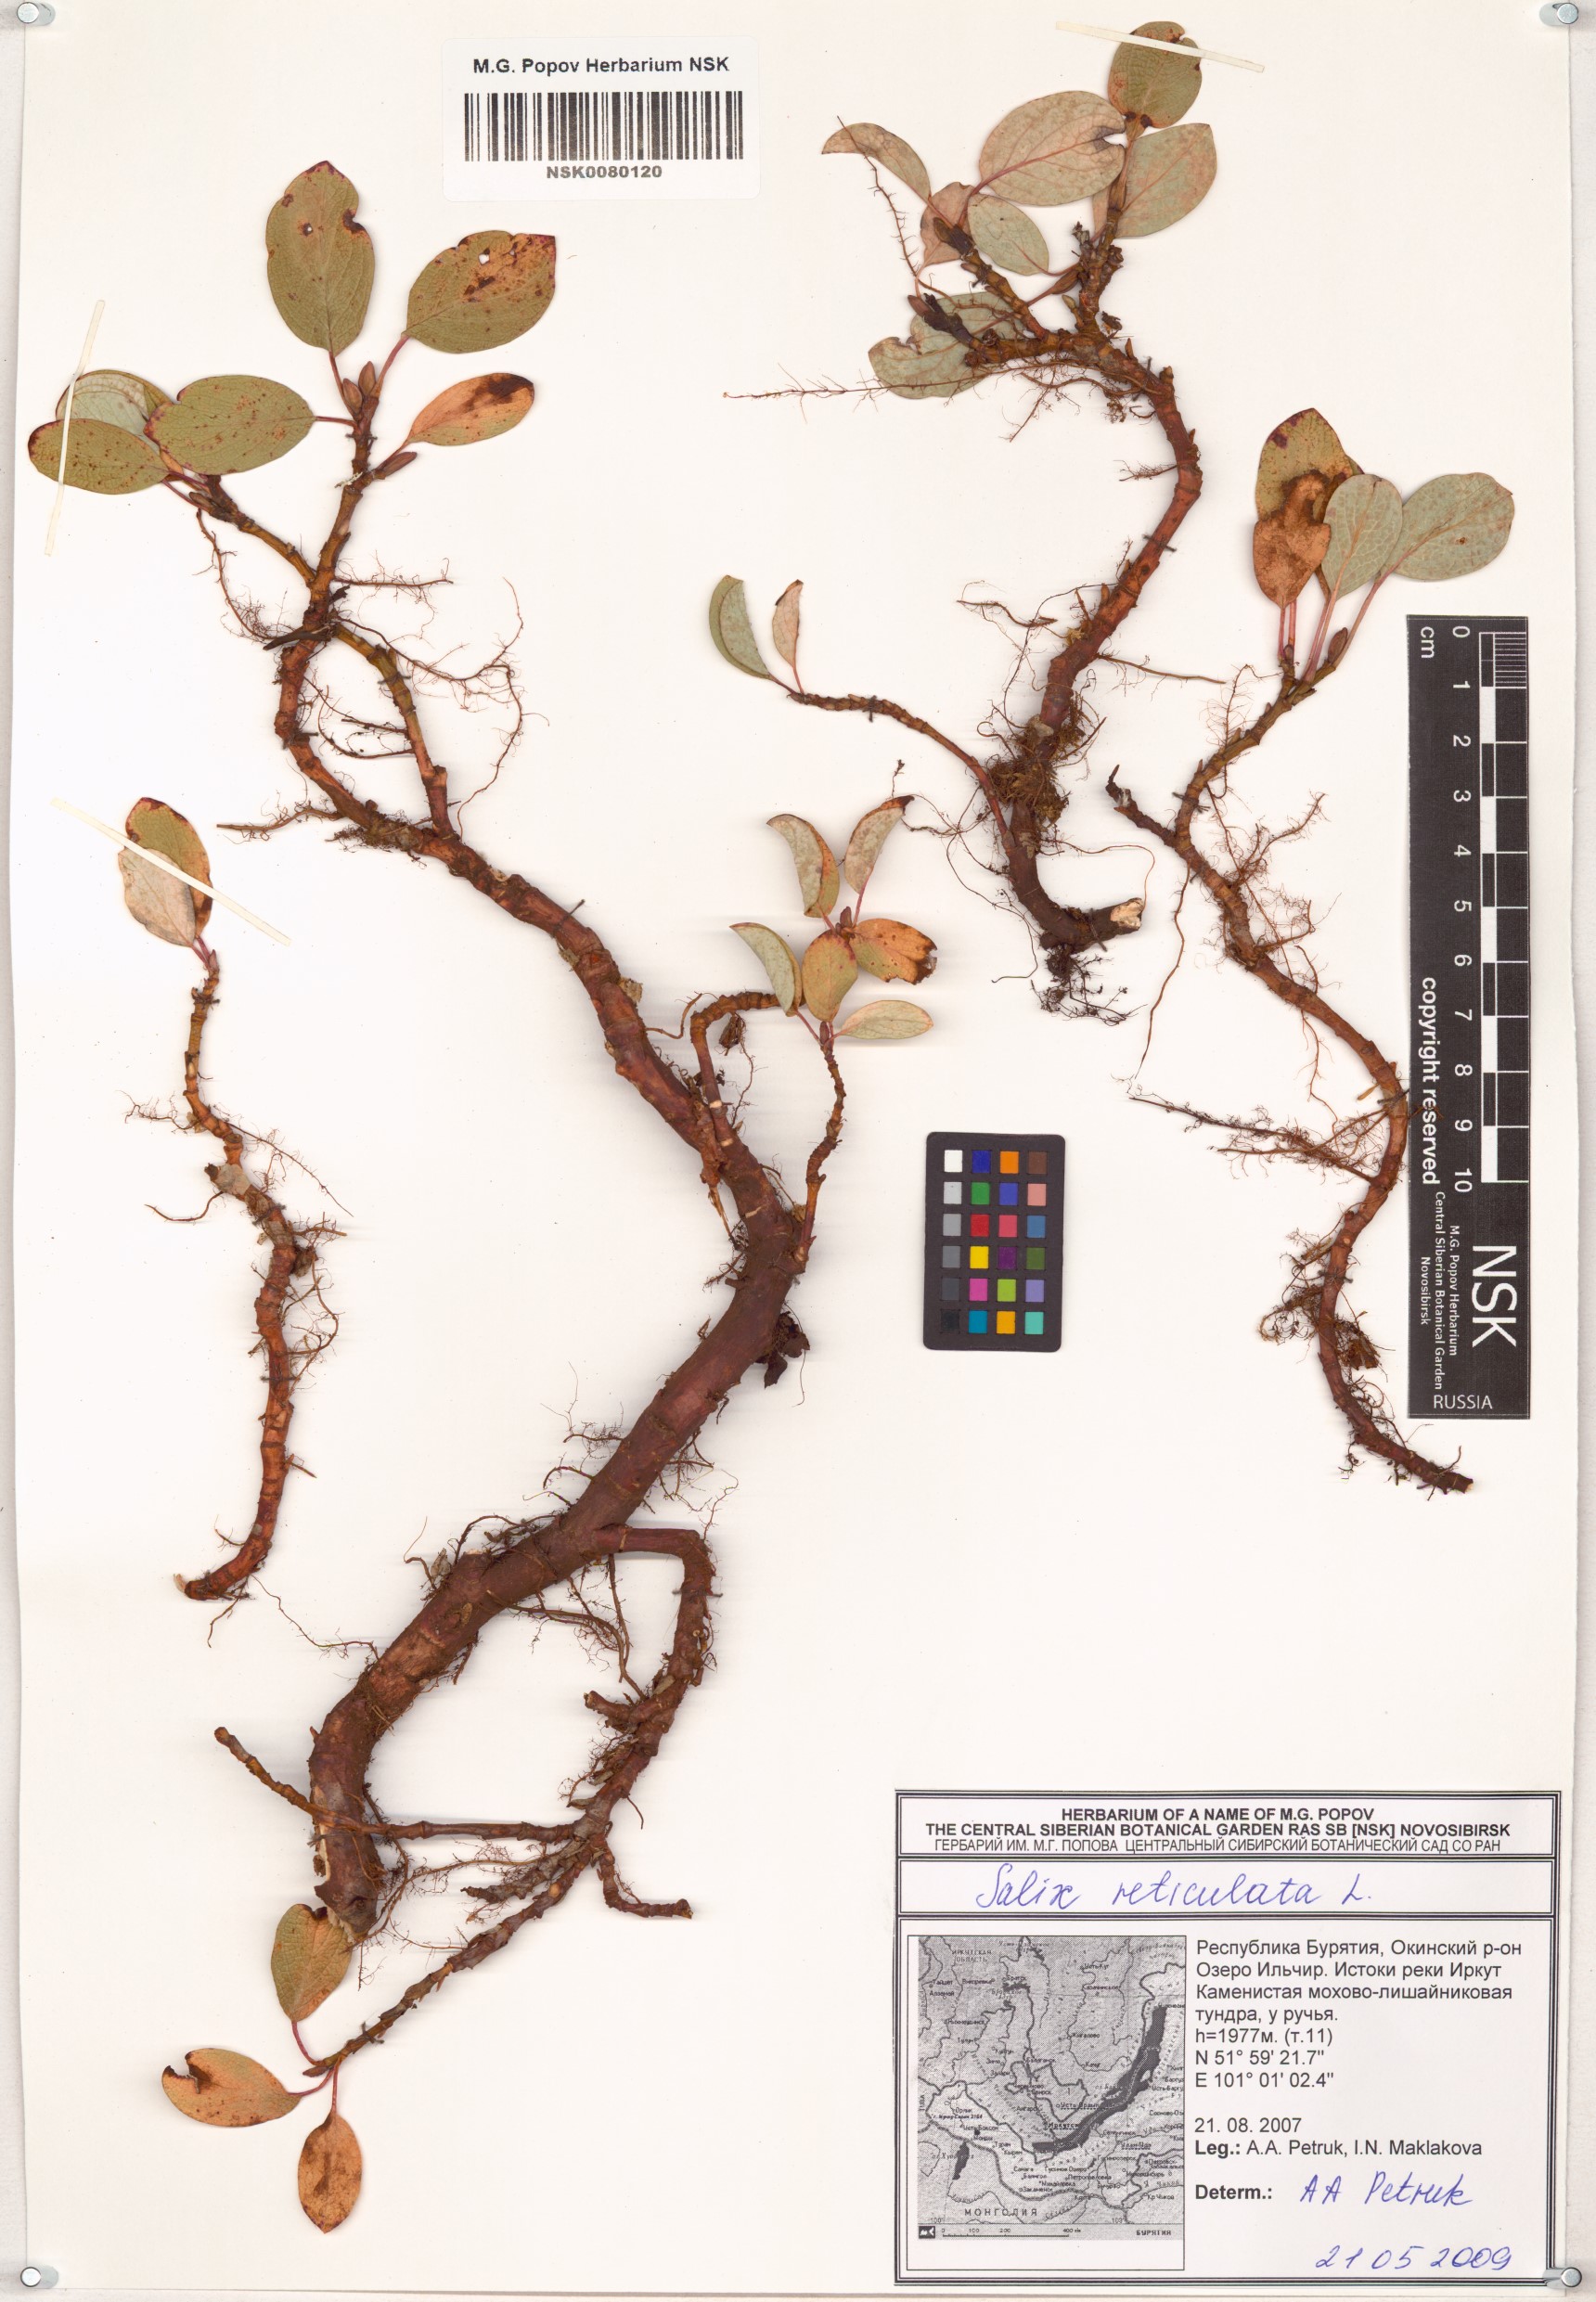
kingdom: Plantae
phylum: Tracheophyta
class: Magnoliopsida
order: Malpighiales
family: Salicaceae
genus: Salix
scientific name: Salix reticulata
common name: Net-leaved willow
